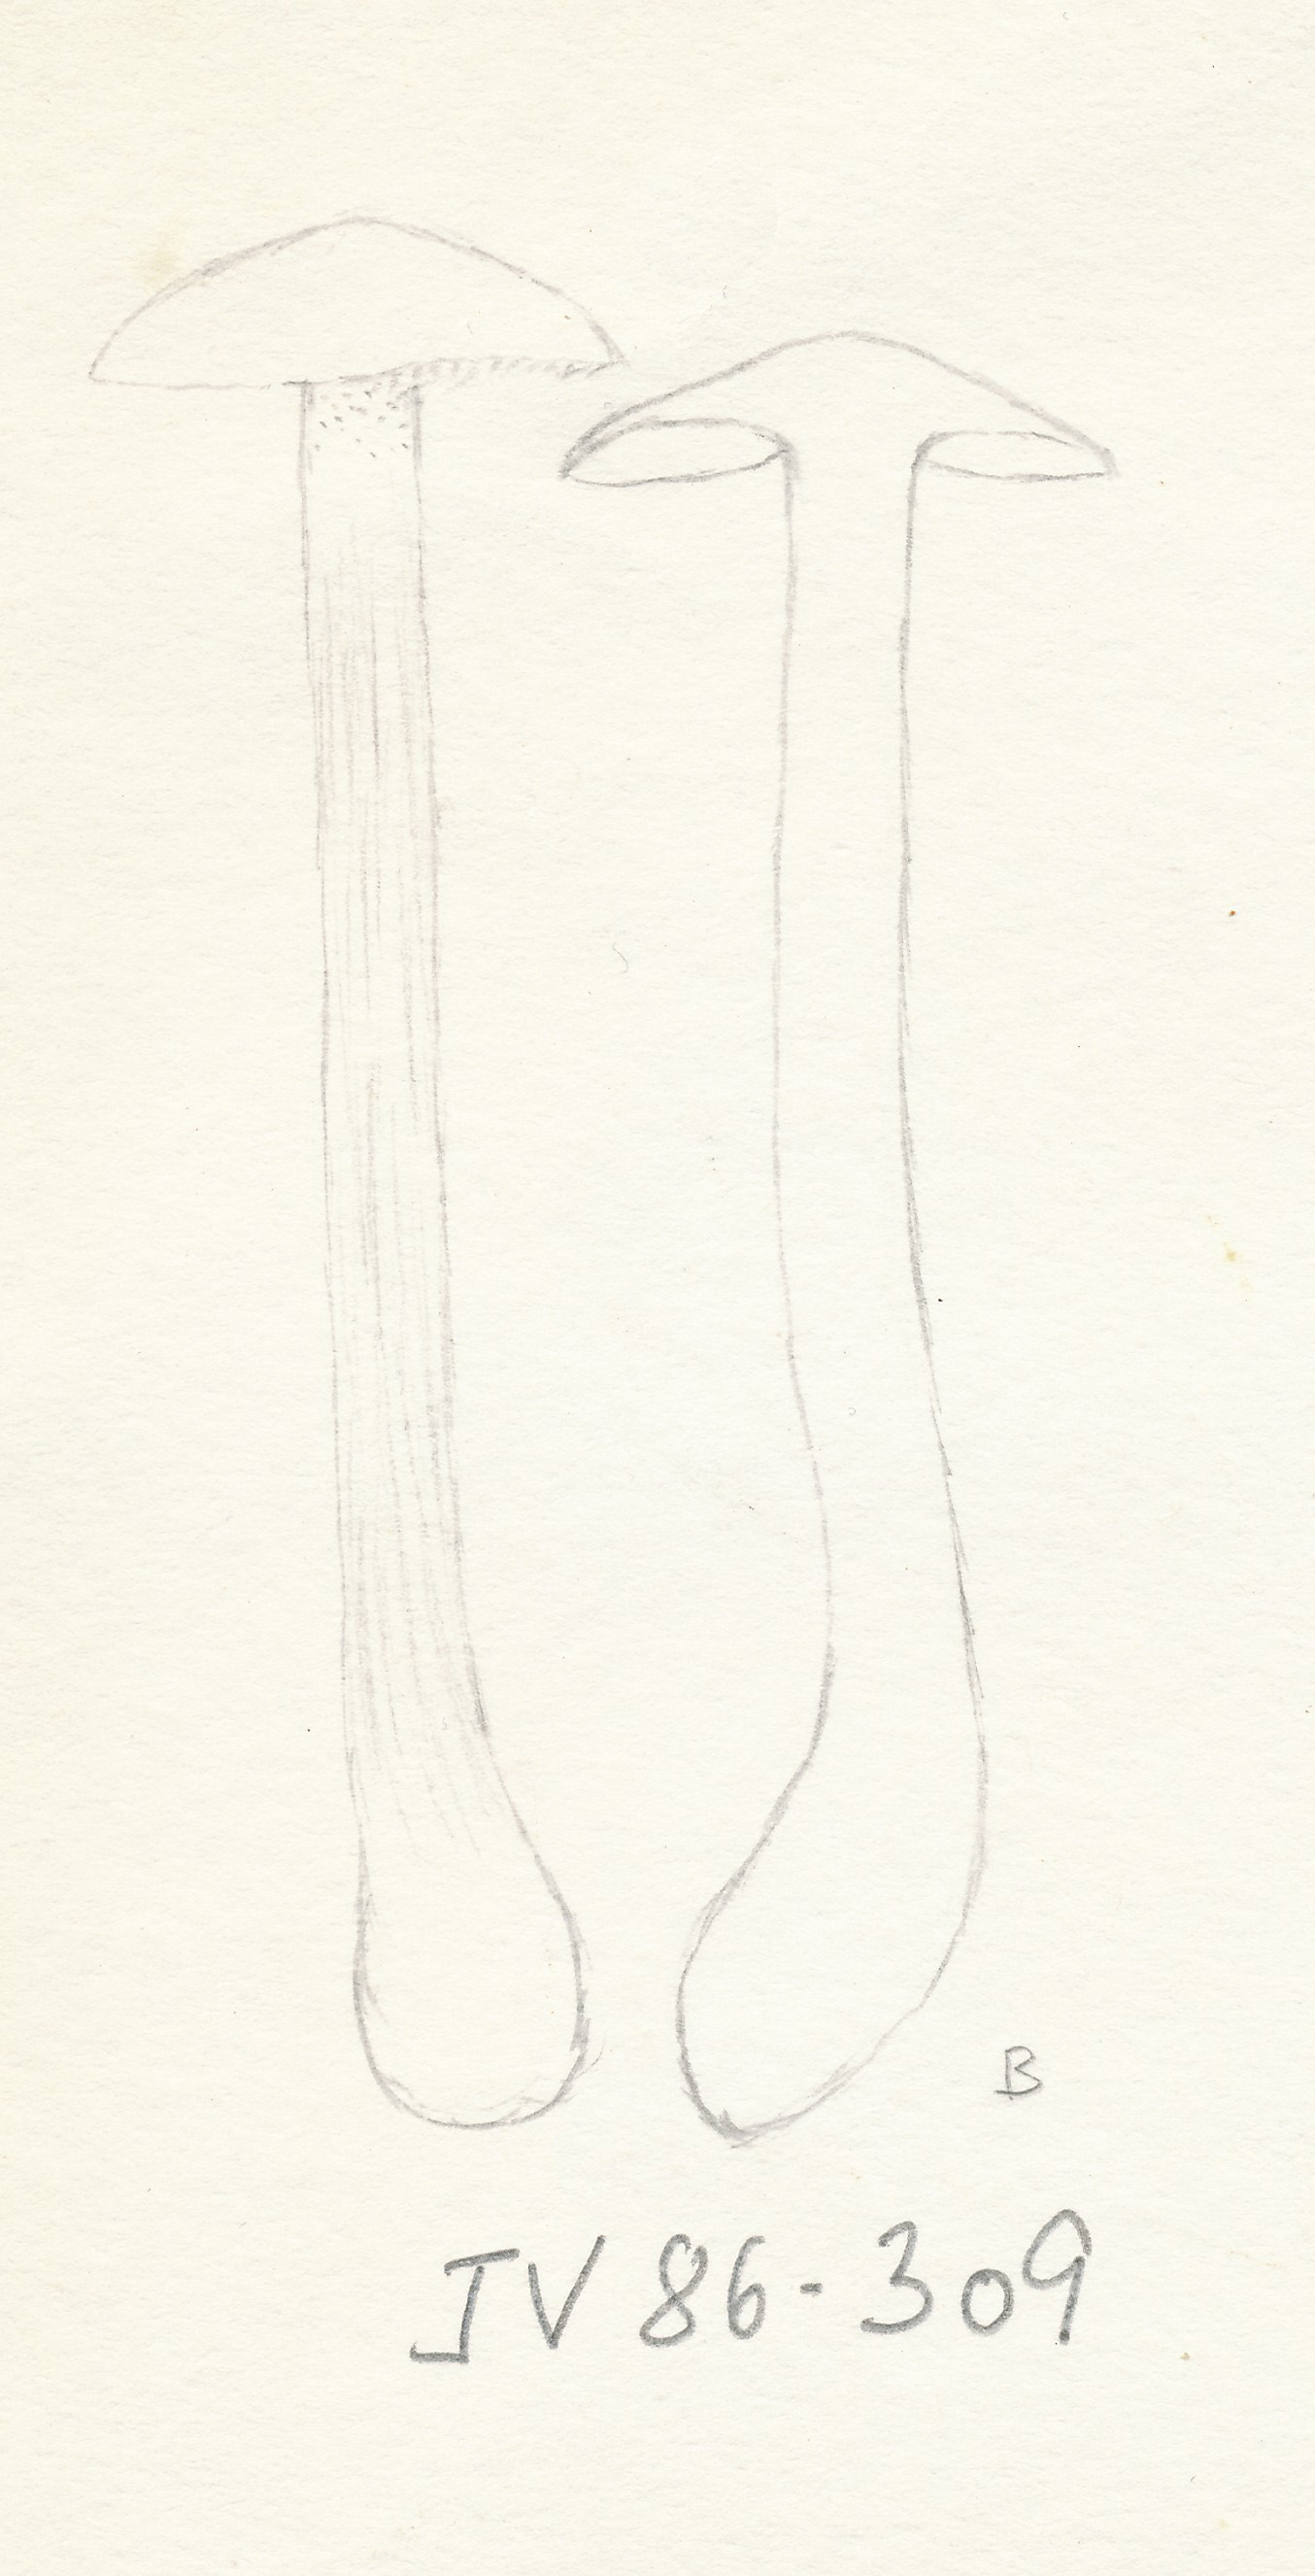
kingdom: Fungi
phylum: Basidiomycota
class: Agaricomycetes
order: Russulales
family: Russulaceae
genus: Lactarius
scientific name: Lactarius rostratus
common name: nubret mælkehat
